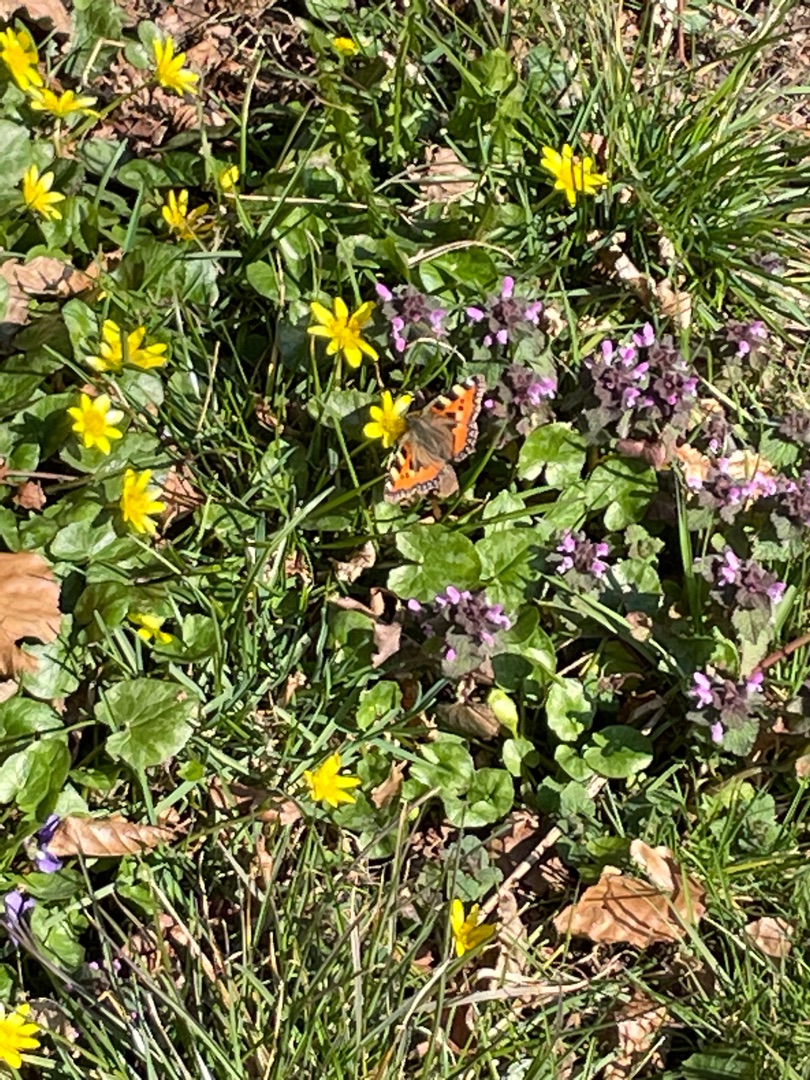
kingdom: Animalia
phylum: Arthropoda
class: Insecta
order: Lepidoptera
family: Nymphalidae
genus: Aglais
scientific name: Aglais urticae
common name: Nældens takvinge
